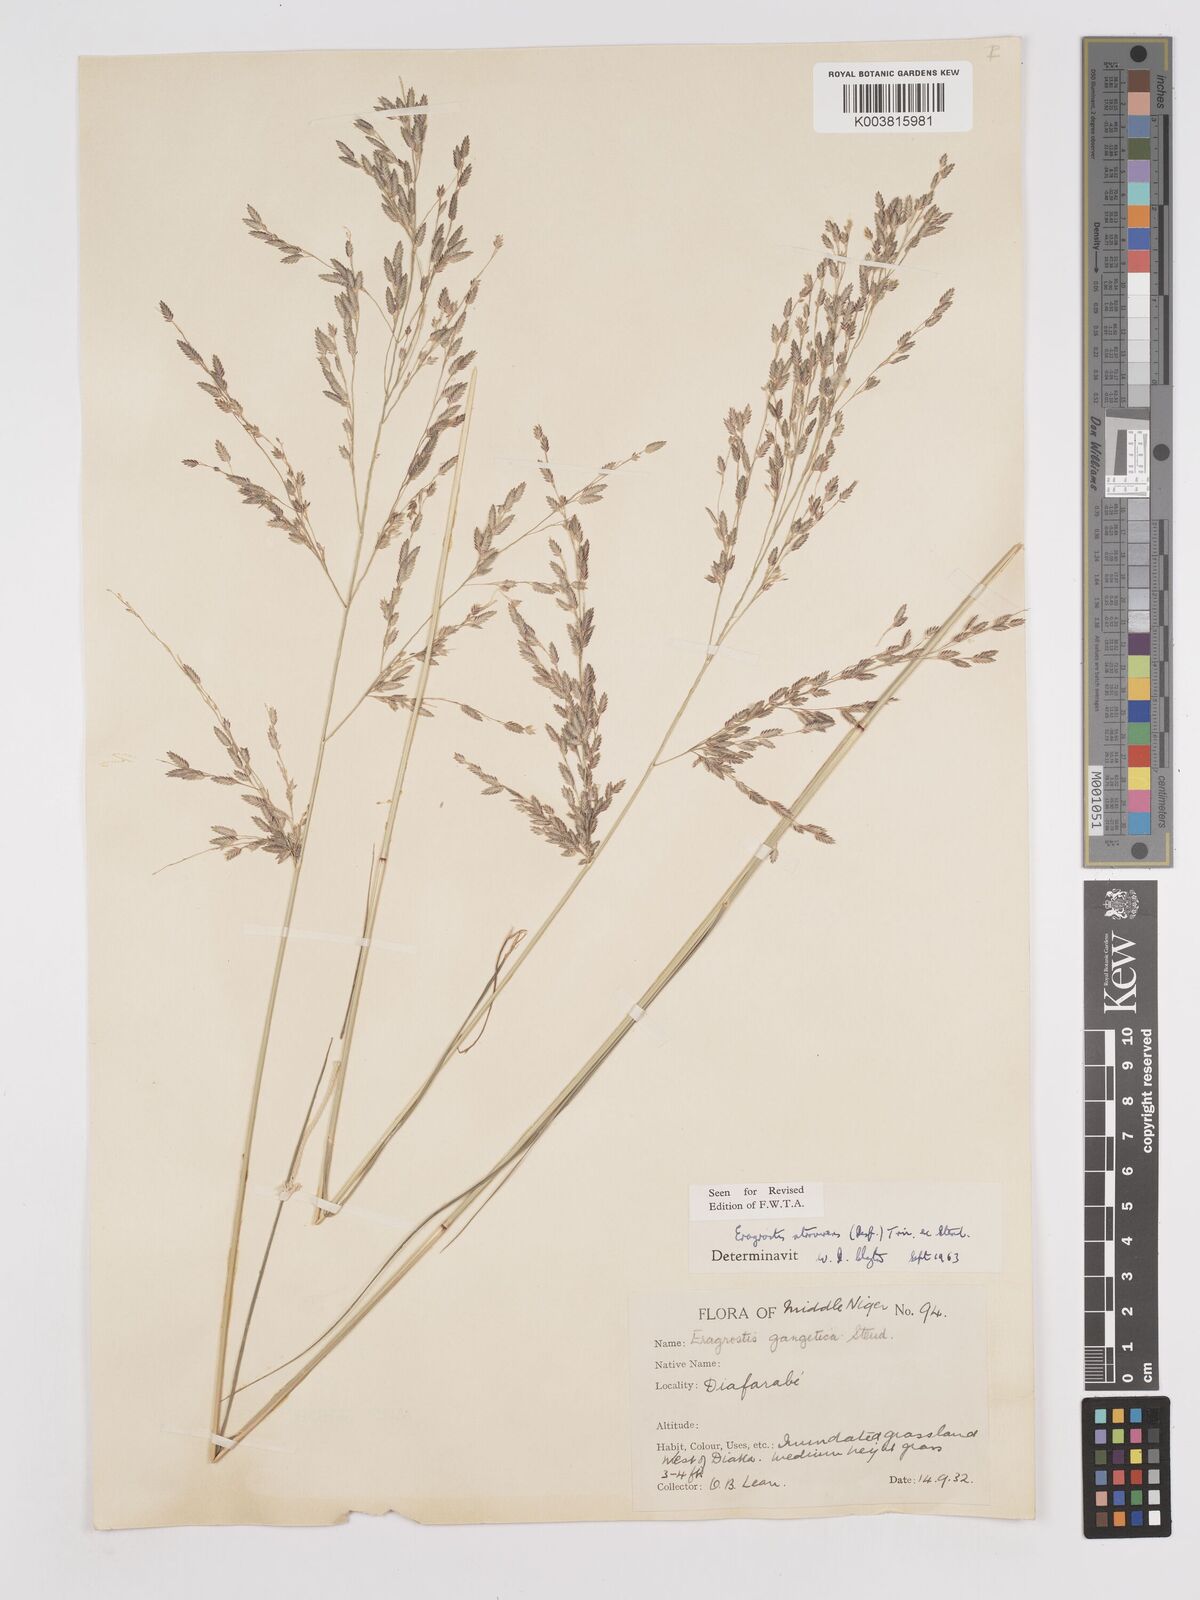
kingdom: Plantae
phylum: Tracheophyta
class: Liliopsida
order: Poales
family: Poaceae
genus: Eragrostis
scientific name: Eragrostis atrovirens
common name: Thalia lovegrass
